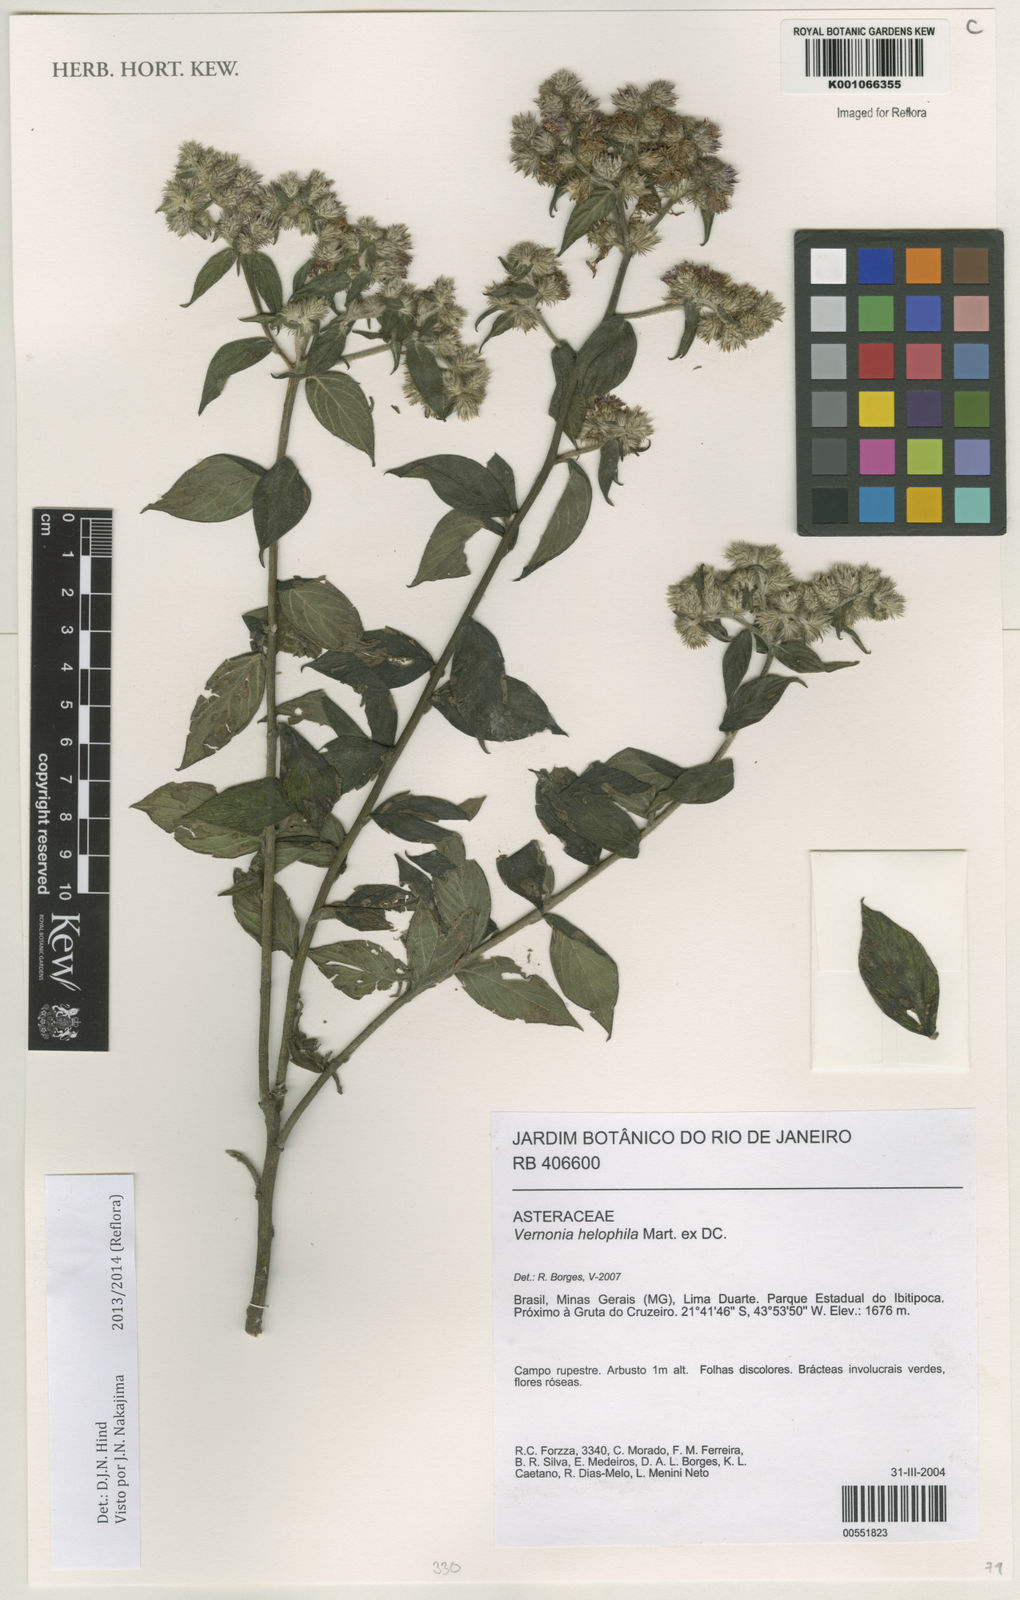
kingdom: Plantae
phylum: Tracheophyta
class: Magnoliopsida
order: Asterales
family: Asteraceae
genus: Lepidaploa
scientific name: Lepidaploa helophila
